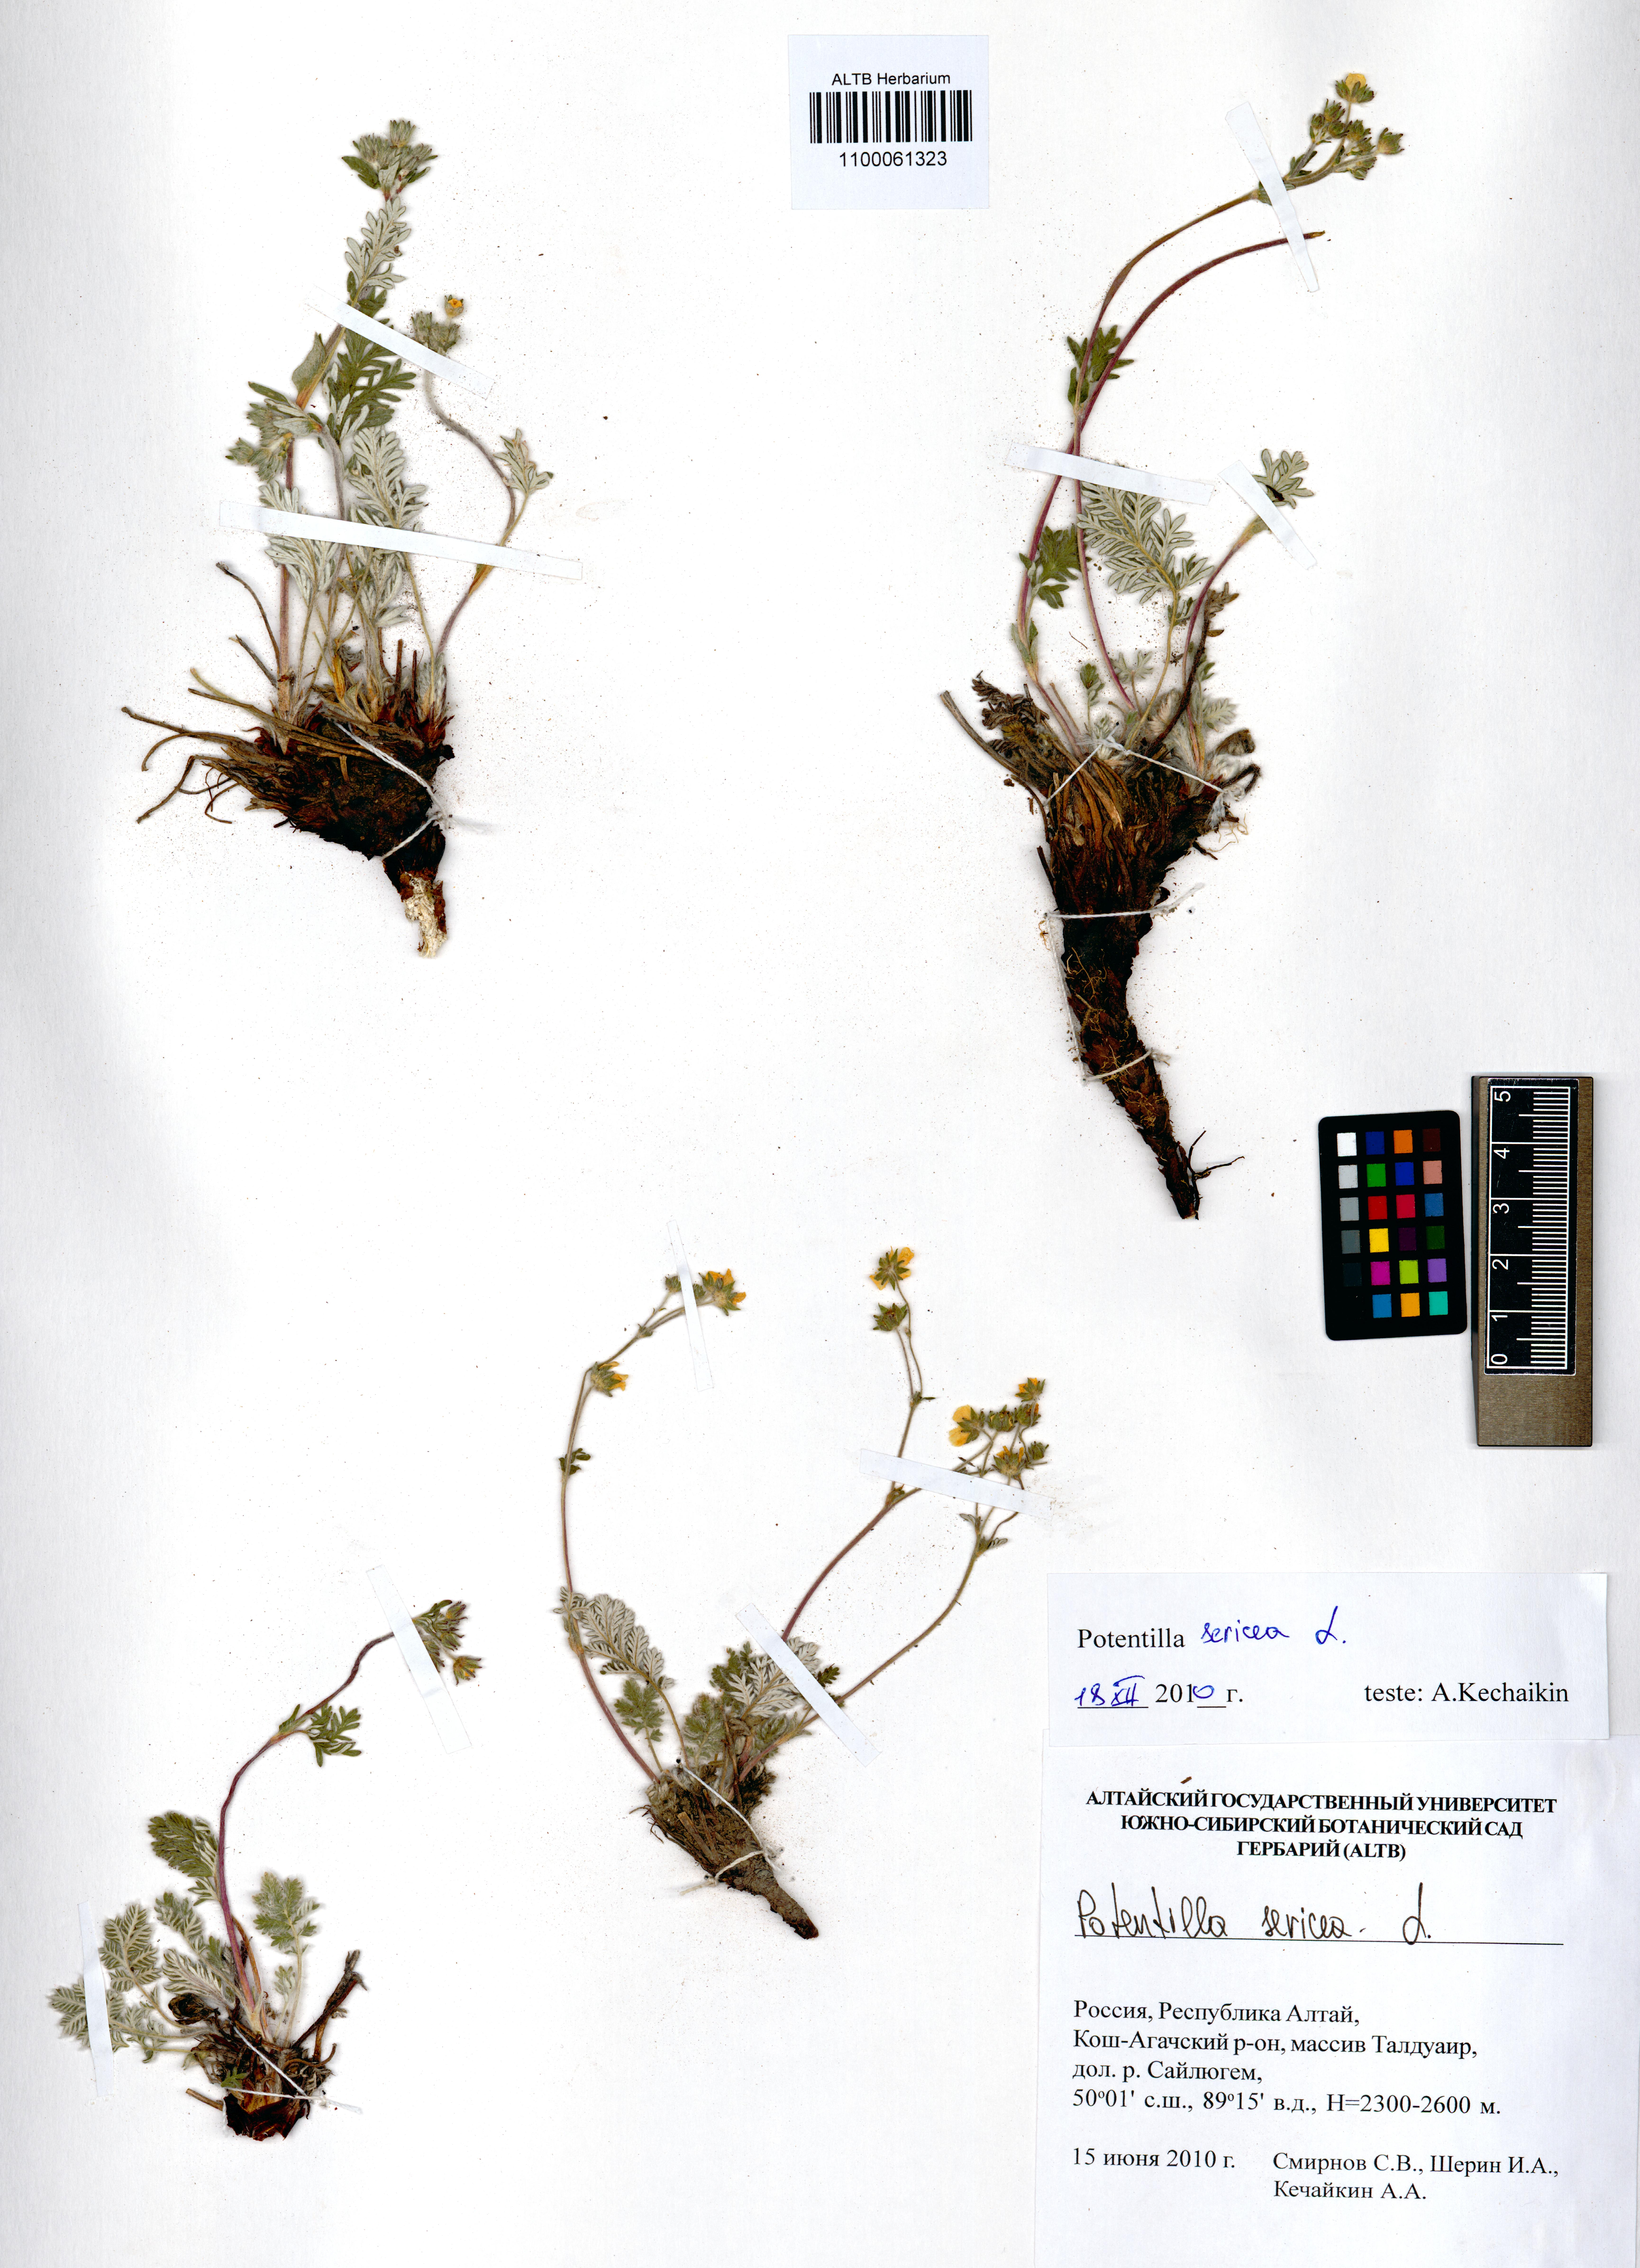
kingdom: Plantae
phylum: Tracheophyta
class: Magnoliopsida
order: Rosales
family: Rosaceae
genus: Potentilla
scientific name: Potentilla sericea
